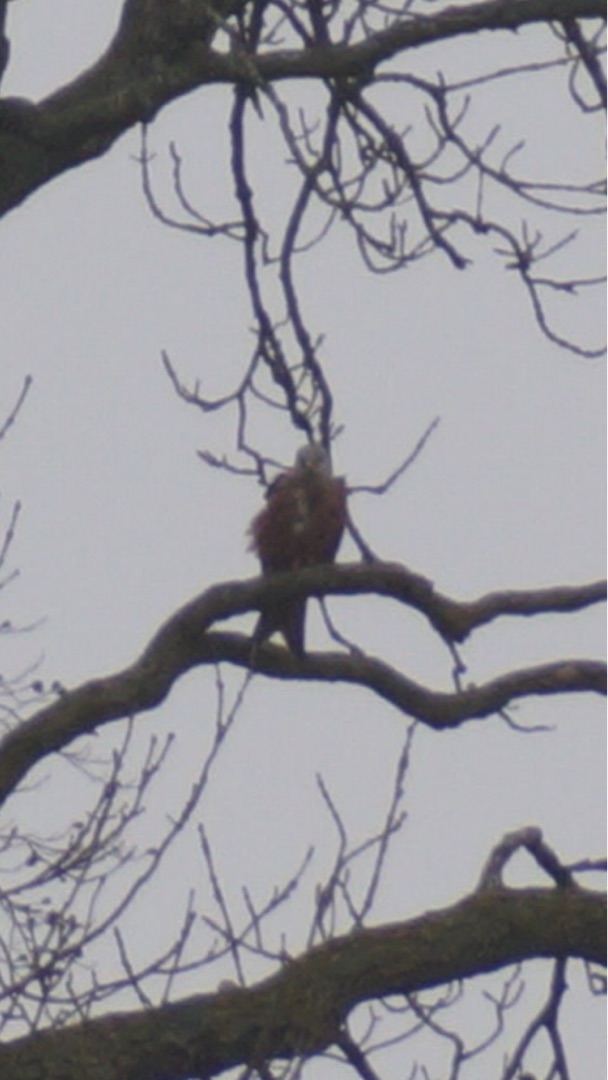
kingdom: Animalia
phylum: Chordata
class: Aves
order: Accipitriformes
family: Accipitridae
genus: Milvus
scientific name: Milvus milvus
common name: Rød glente
